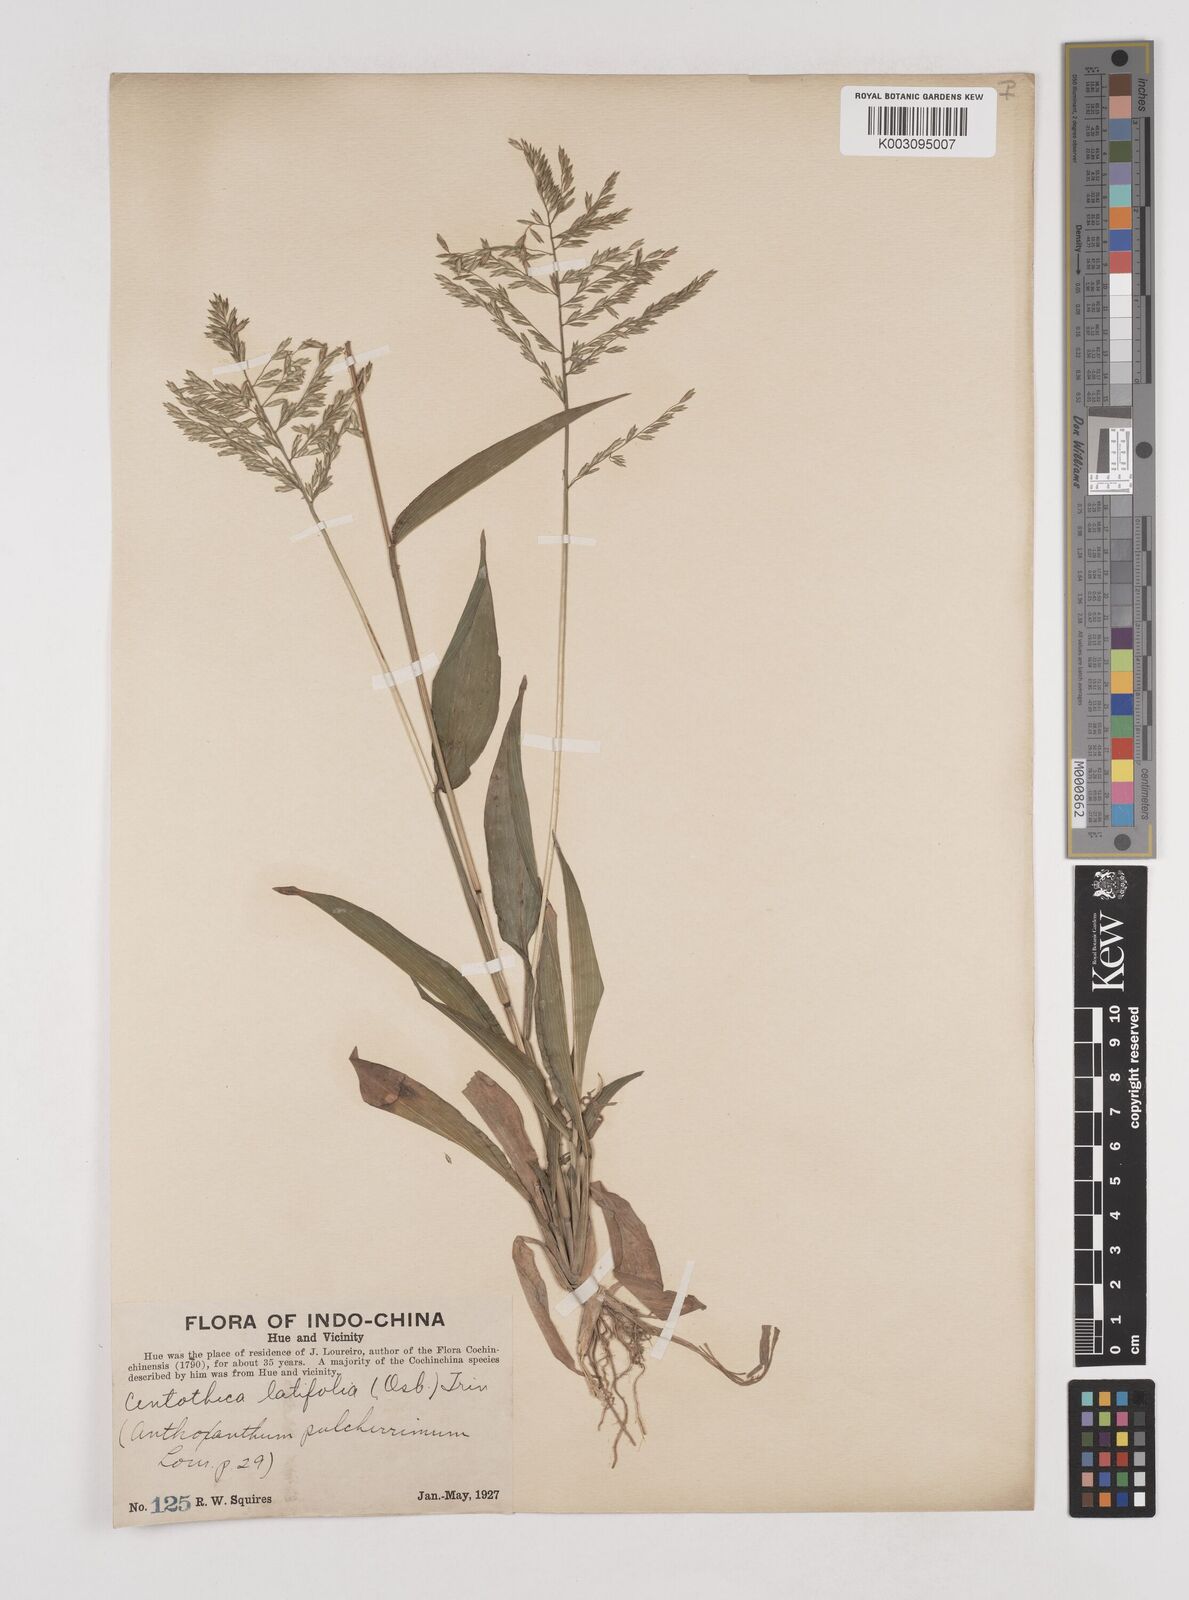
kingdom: Plantae
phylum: Tracheophyta
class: Liliopsida
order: Poales
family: Poaceae
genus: Centotheca
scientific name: Centotheca lappacea
